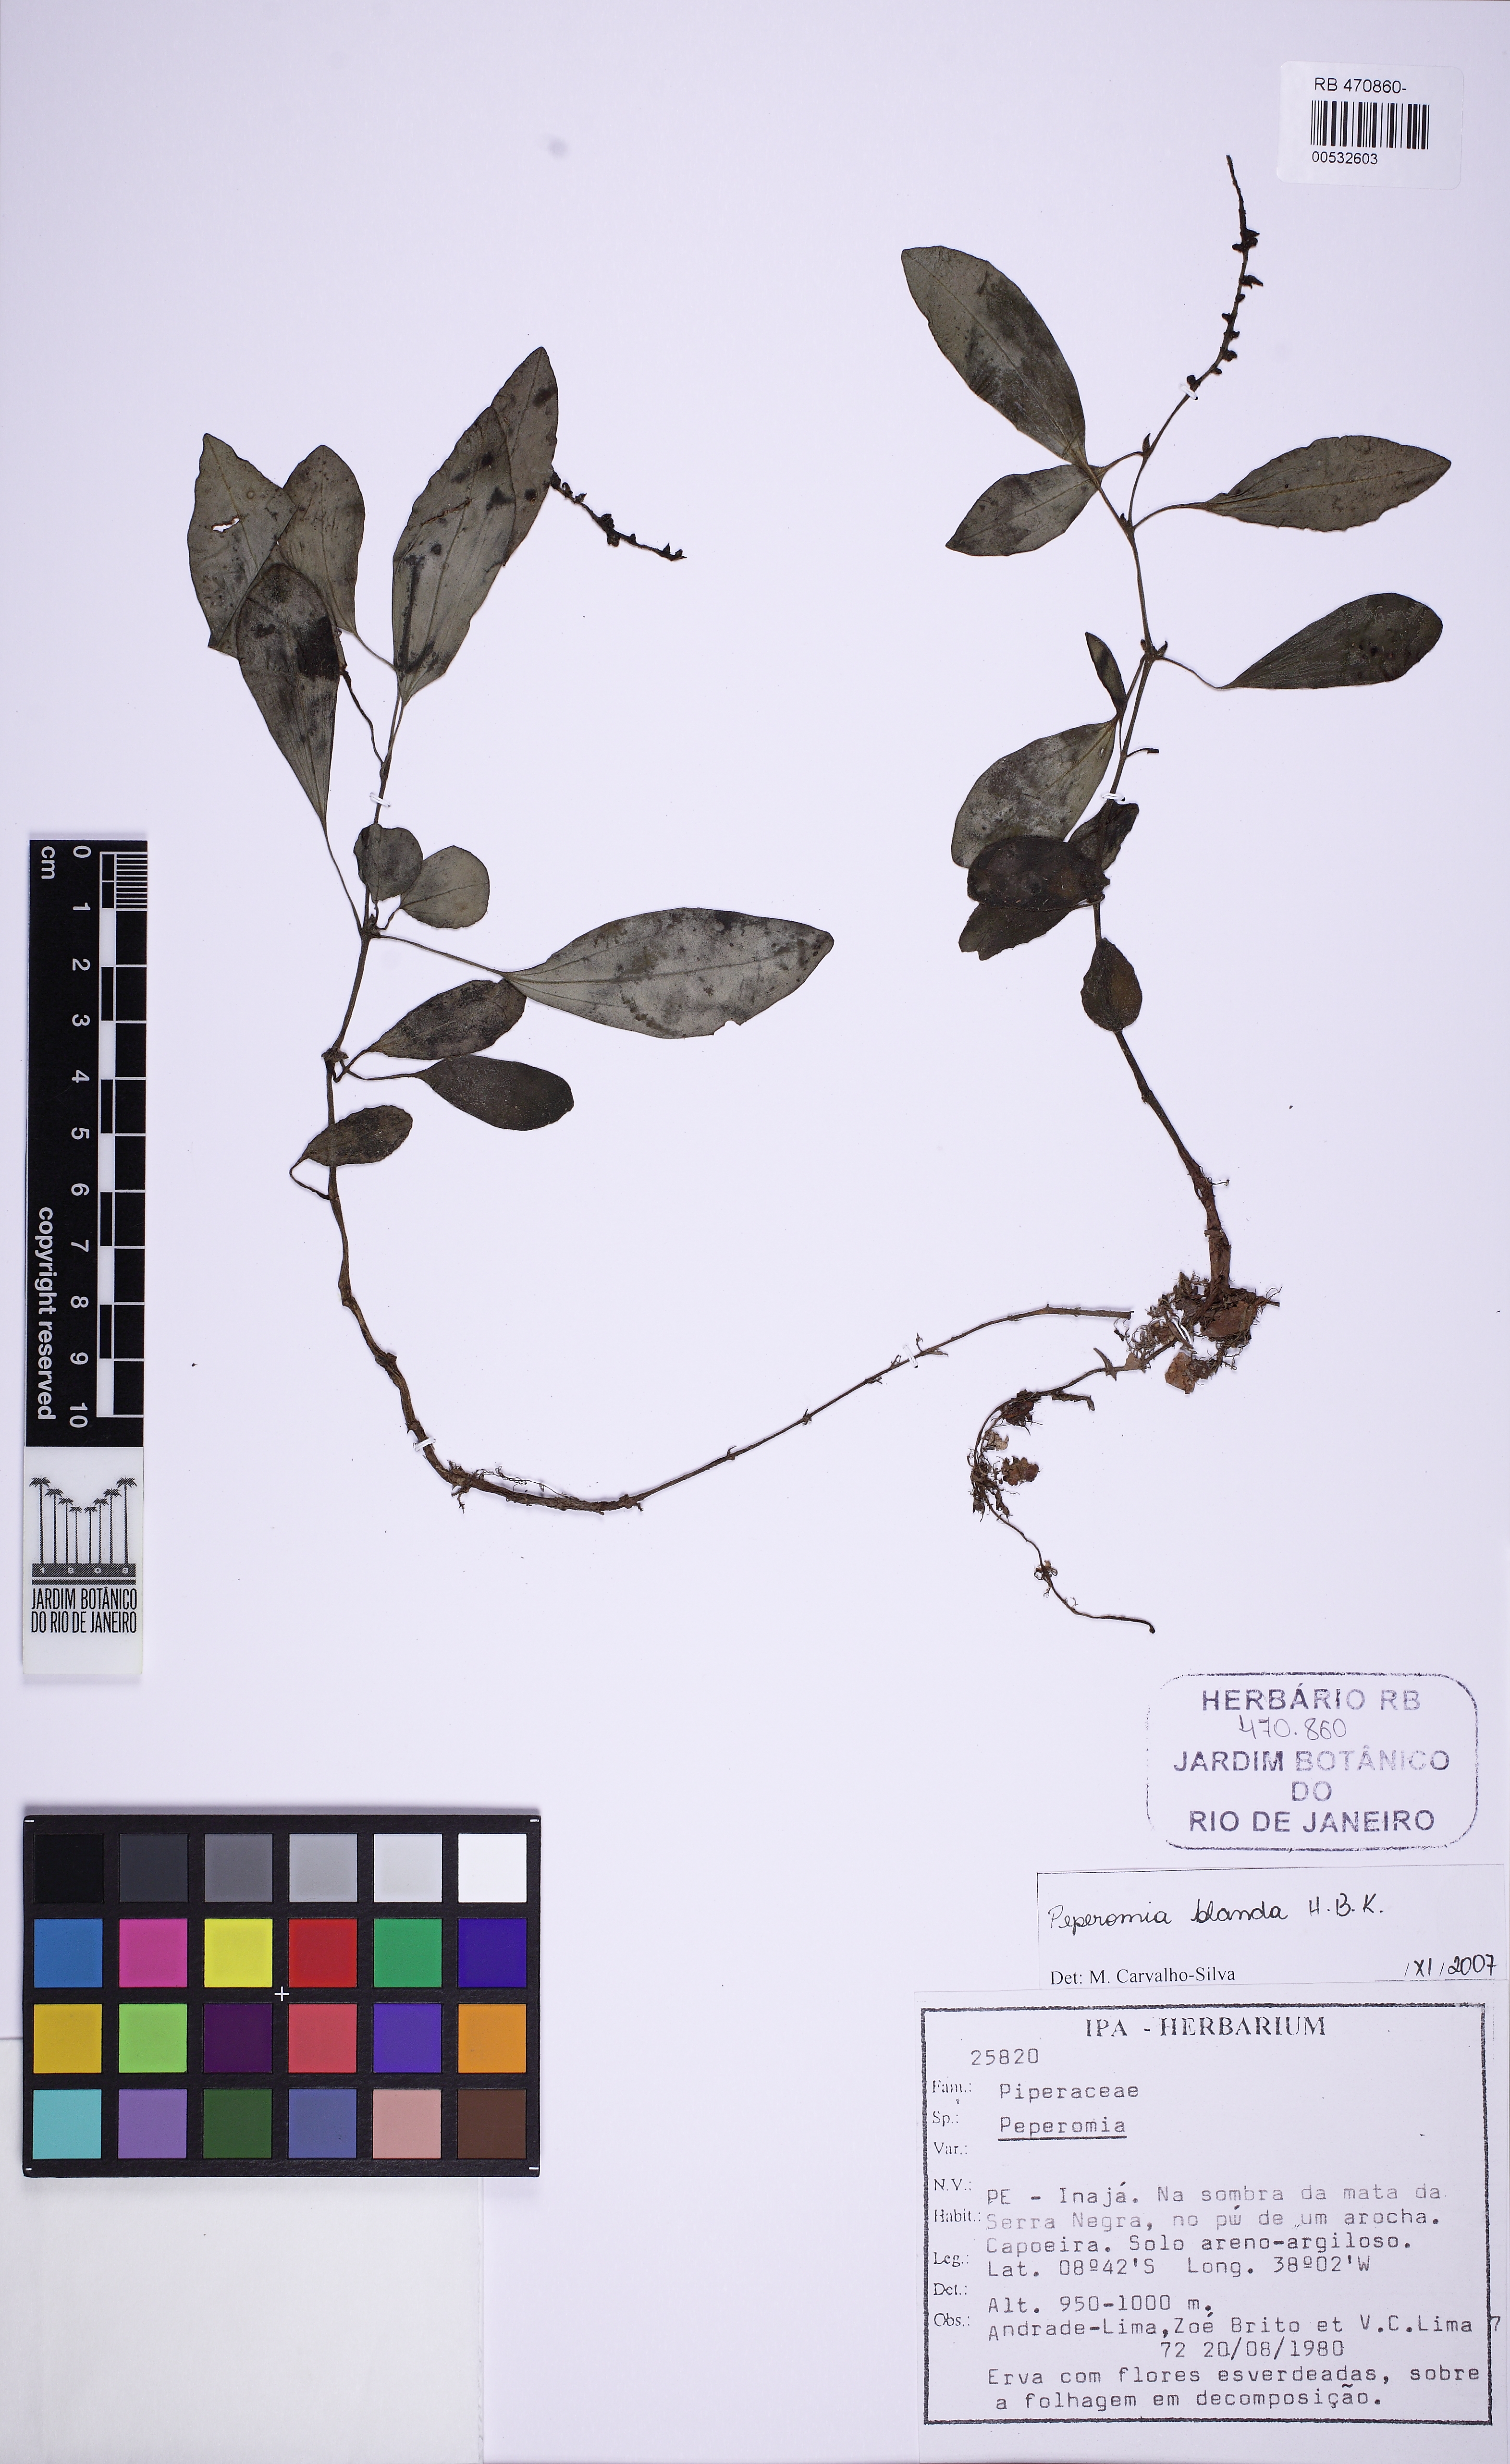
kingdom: Plantae
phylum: Tracheophyta
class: Magnoliopsida
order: Piperales
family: Piperaceae
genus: Peperomia
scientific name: Peperomia blanda
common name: Arid-land peperomia
